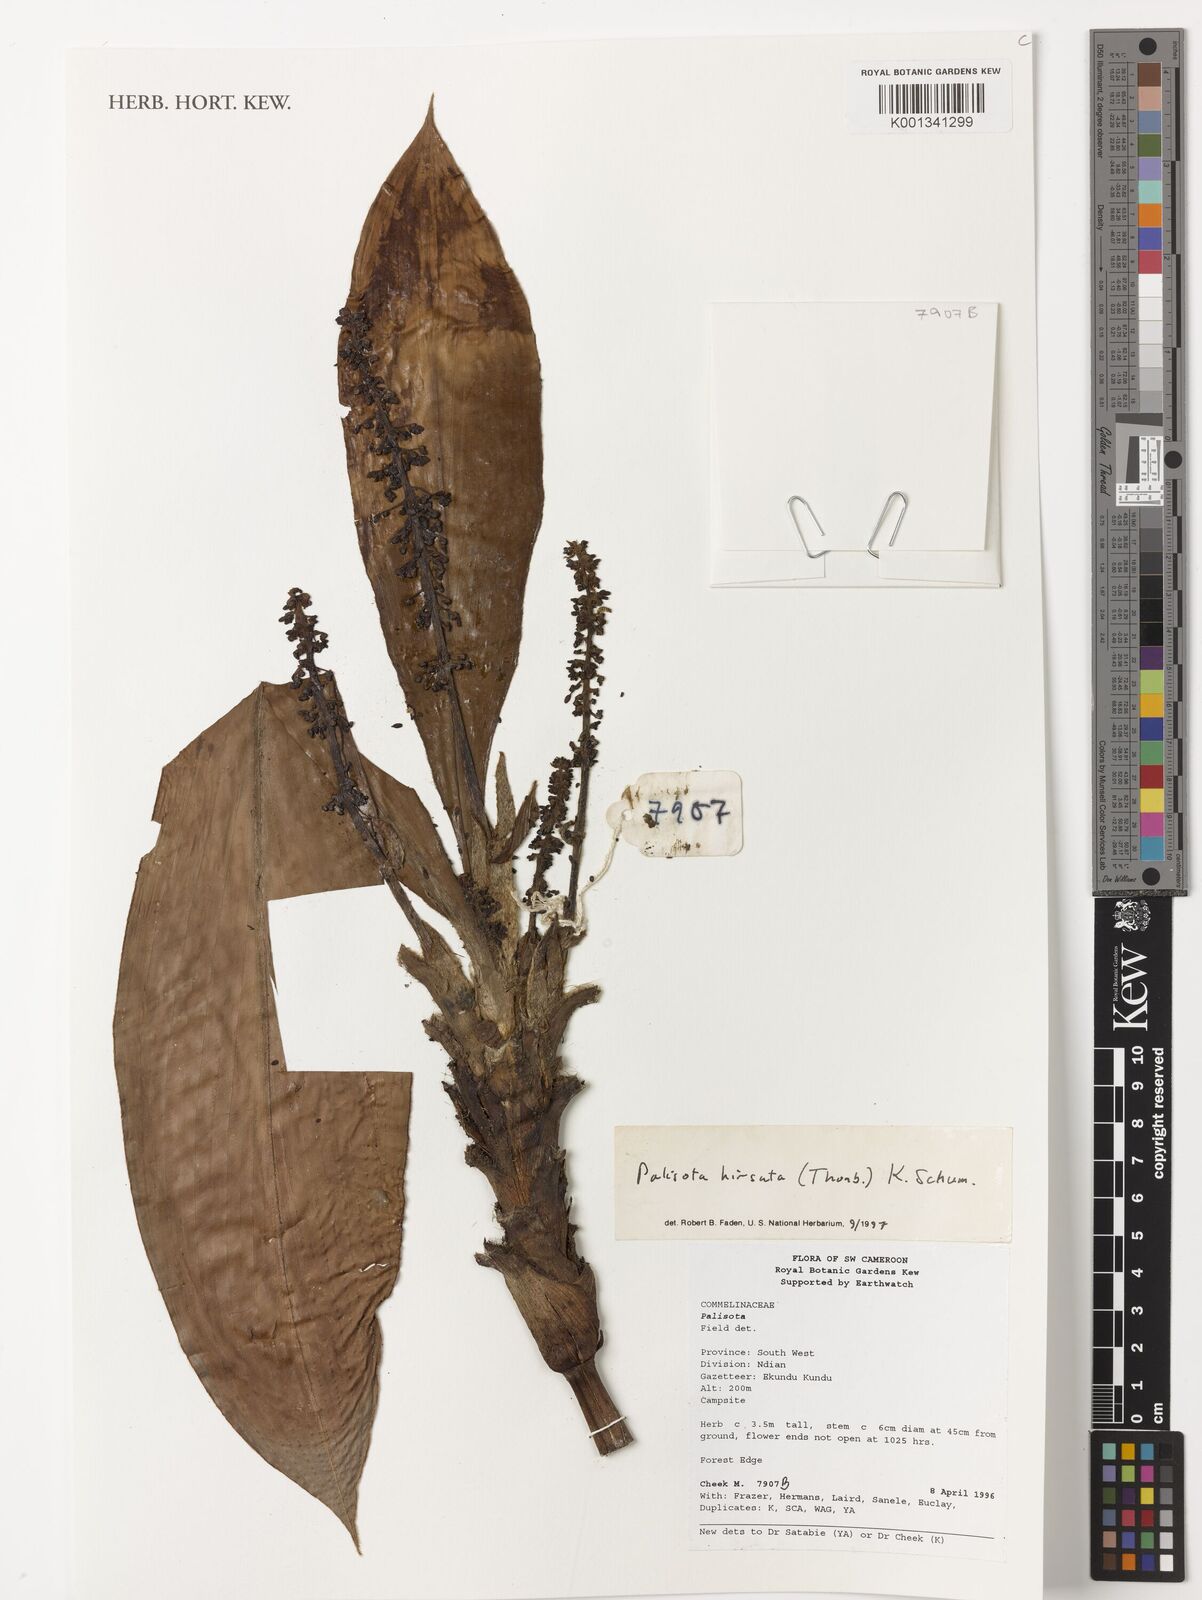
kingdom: Plantae
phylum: Tracheophyta
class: Liliopsida
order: Commelinales
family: Commelinaceae
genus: Palisota
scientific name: Palisota hirsuta
